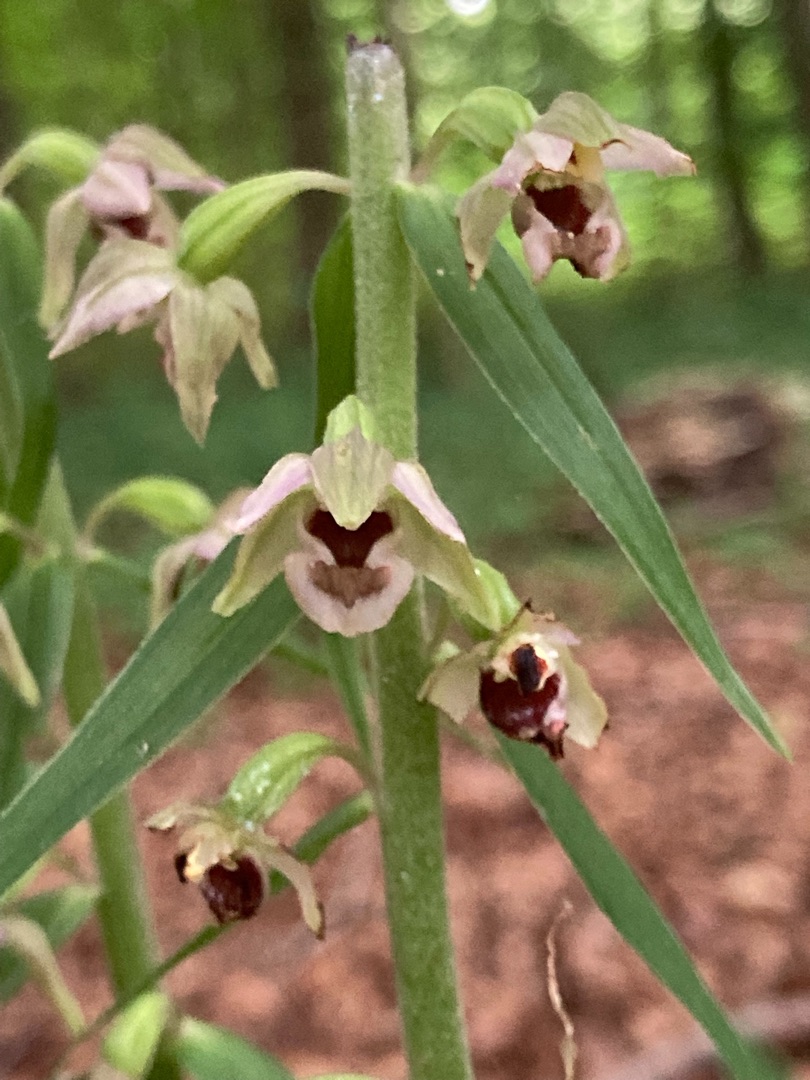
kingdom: Plantae
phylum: Tracheophyta
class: Liliopsida
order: Asparagales
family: Orchidaceae
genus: Epipactis
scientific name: Epipactis helleborine
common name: Skov-hullæbe
